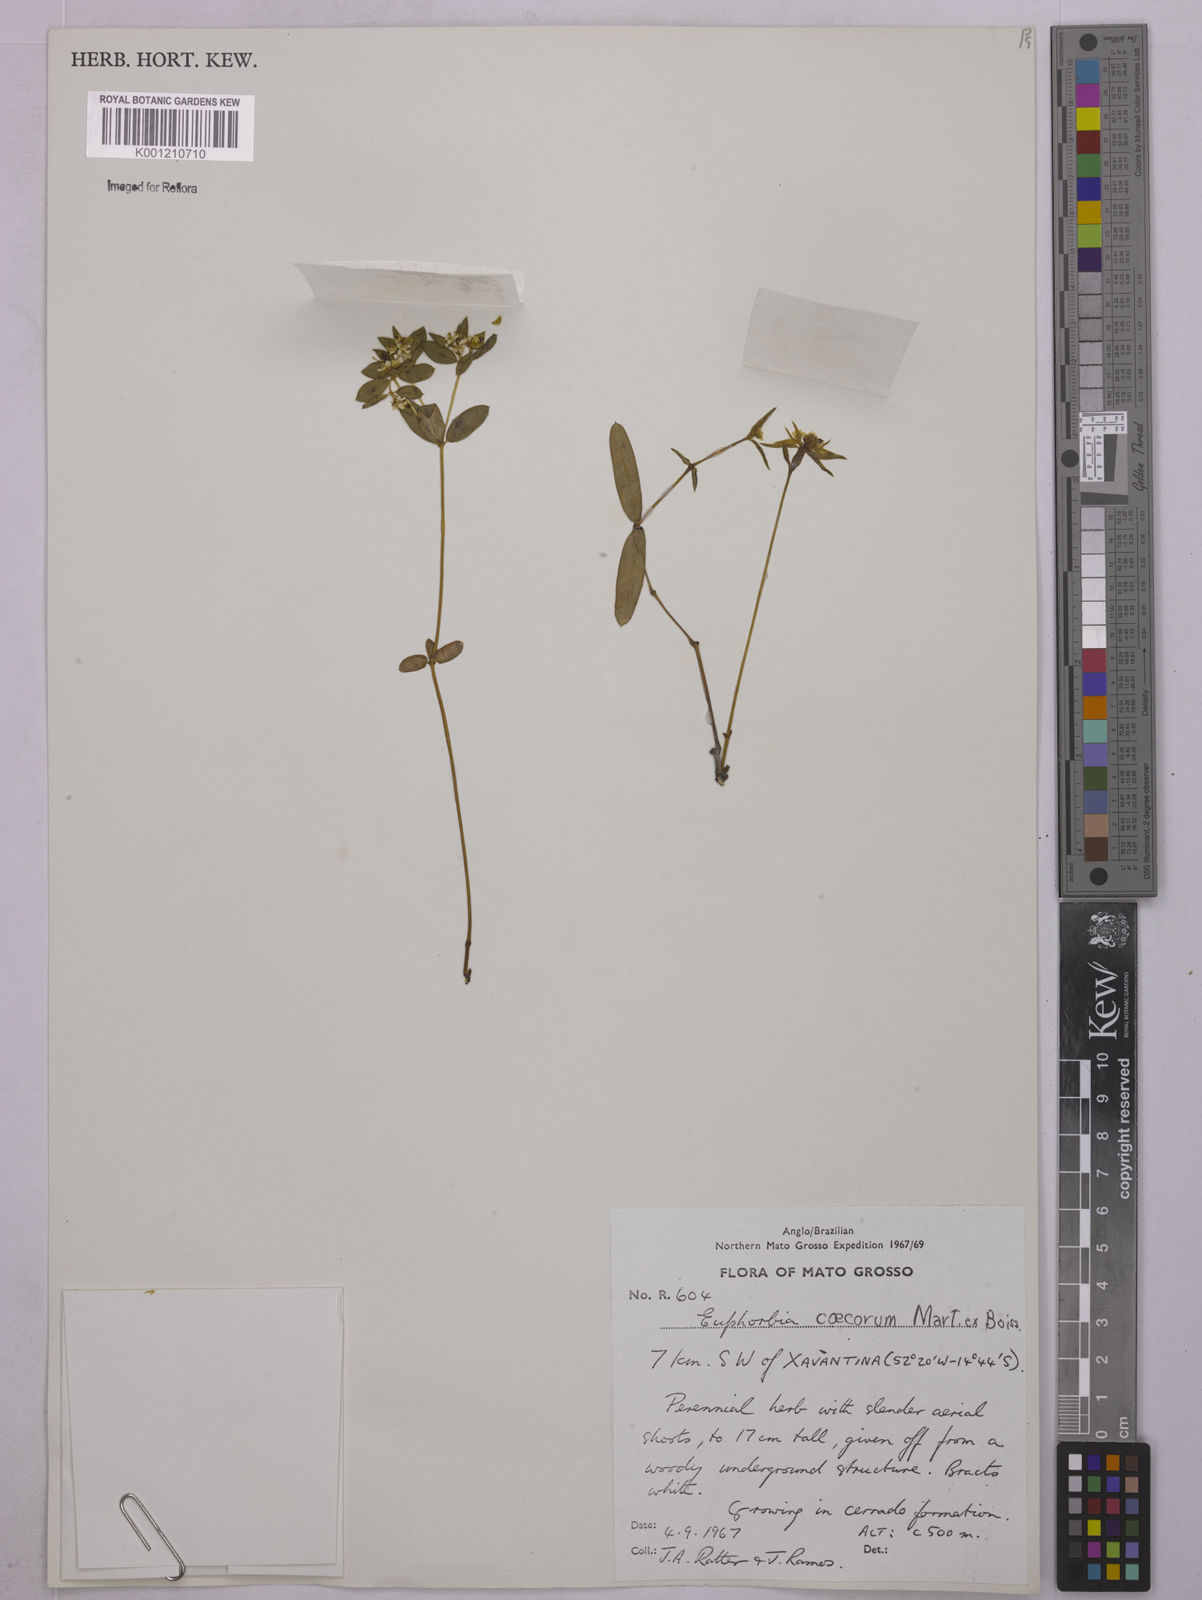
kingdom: Plantae
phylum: Tracheophyta
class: Magnoliopsida
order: Malpighiales
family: Euphorbiaceae
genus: Euphorbia
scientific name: Euphorbia potentilloides
